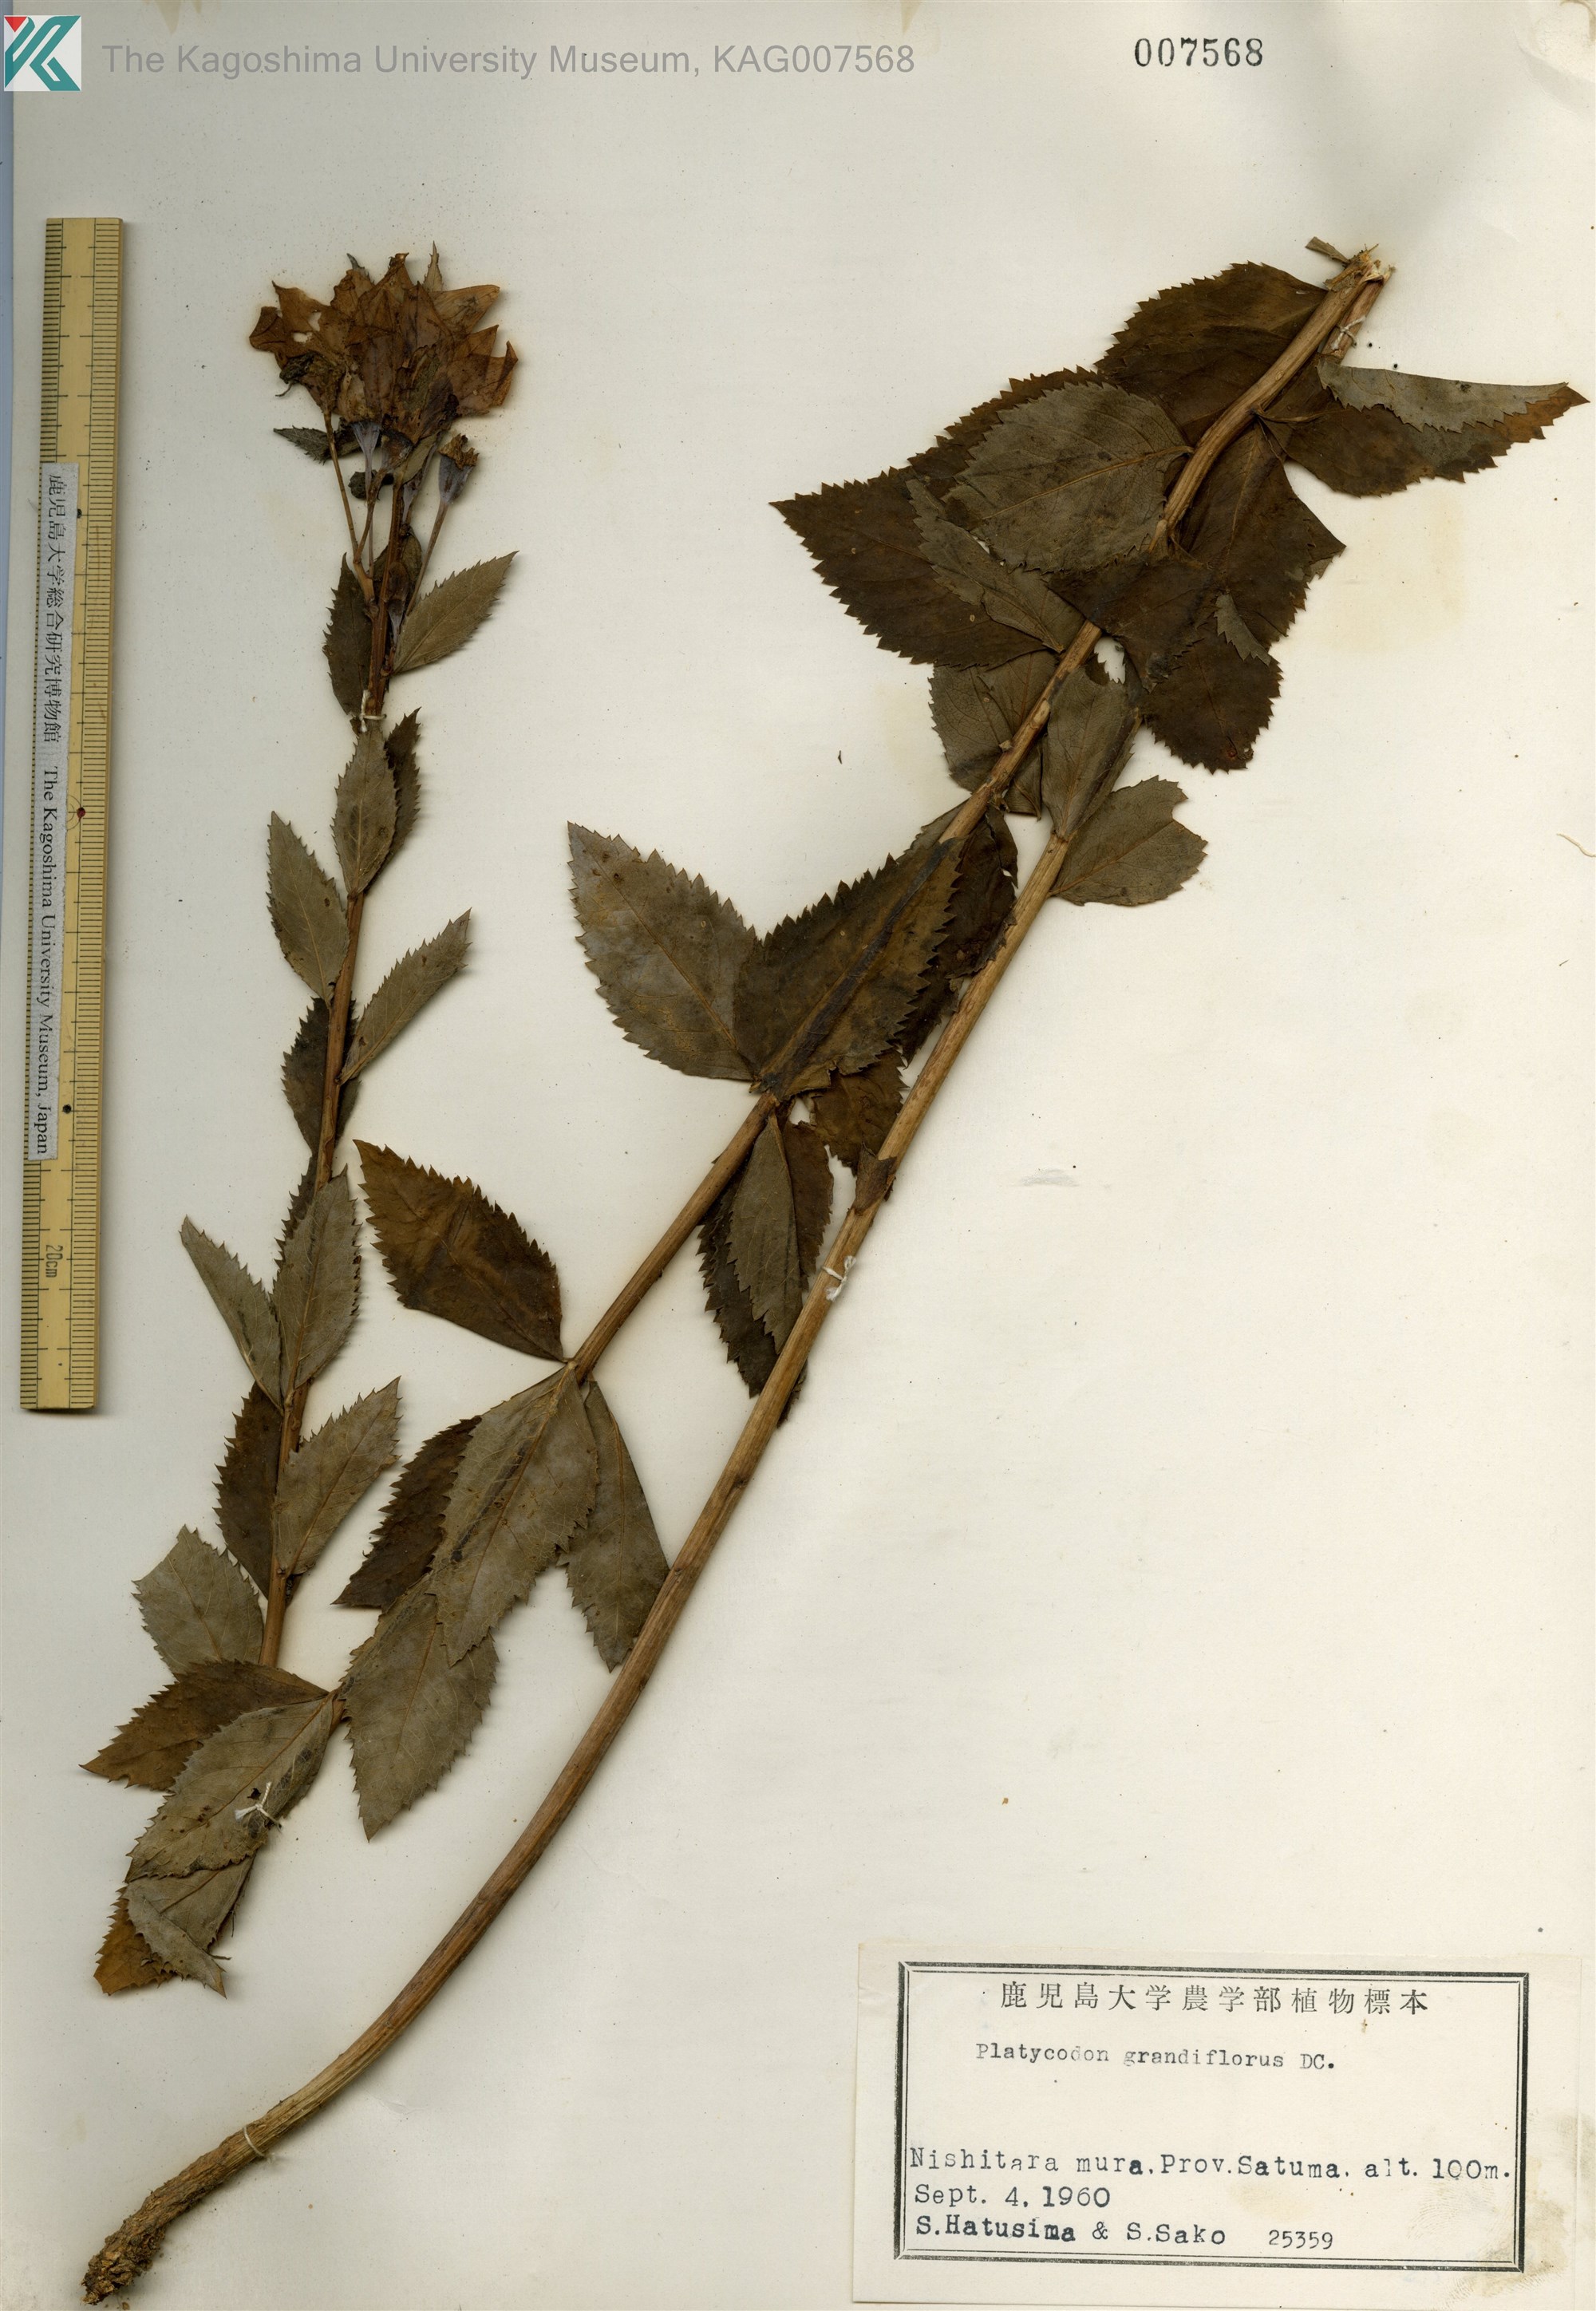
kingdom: Plantae
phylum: Tracheophyta
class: Magnoliopsida
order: Asterales
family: Campanulaceae
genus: Platycodon
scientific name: Platycodon grandiflorus
